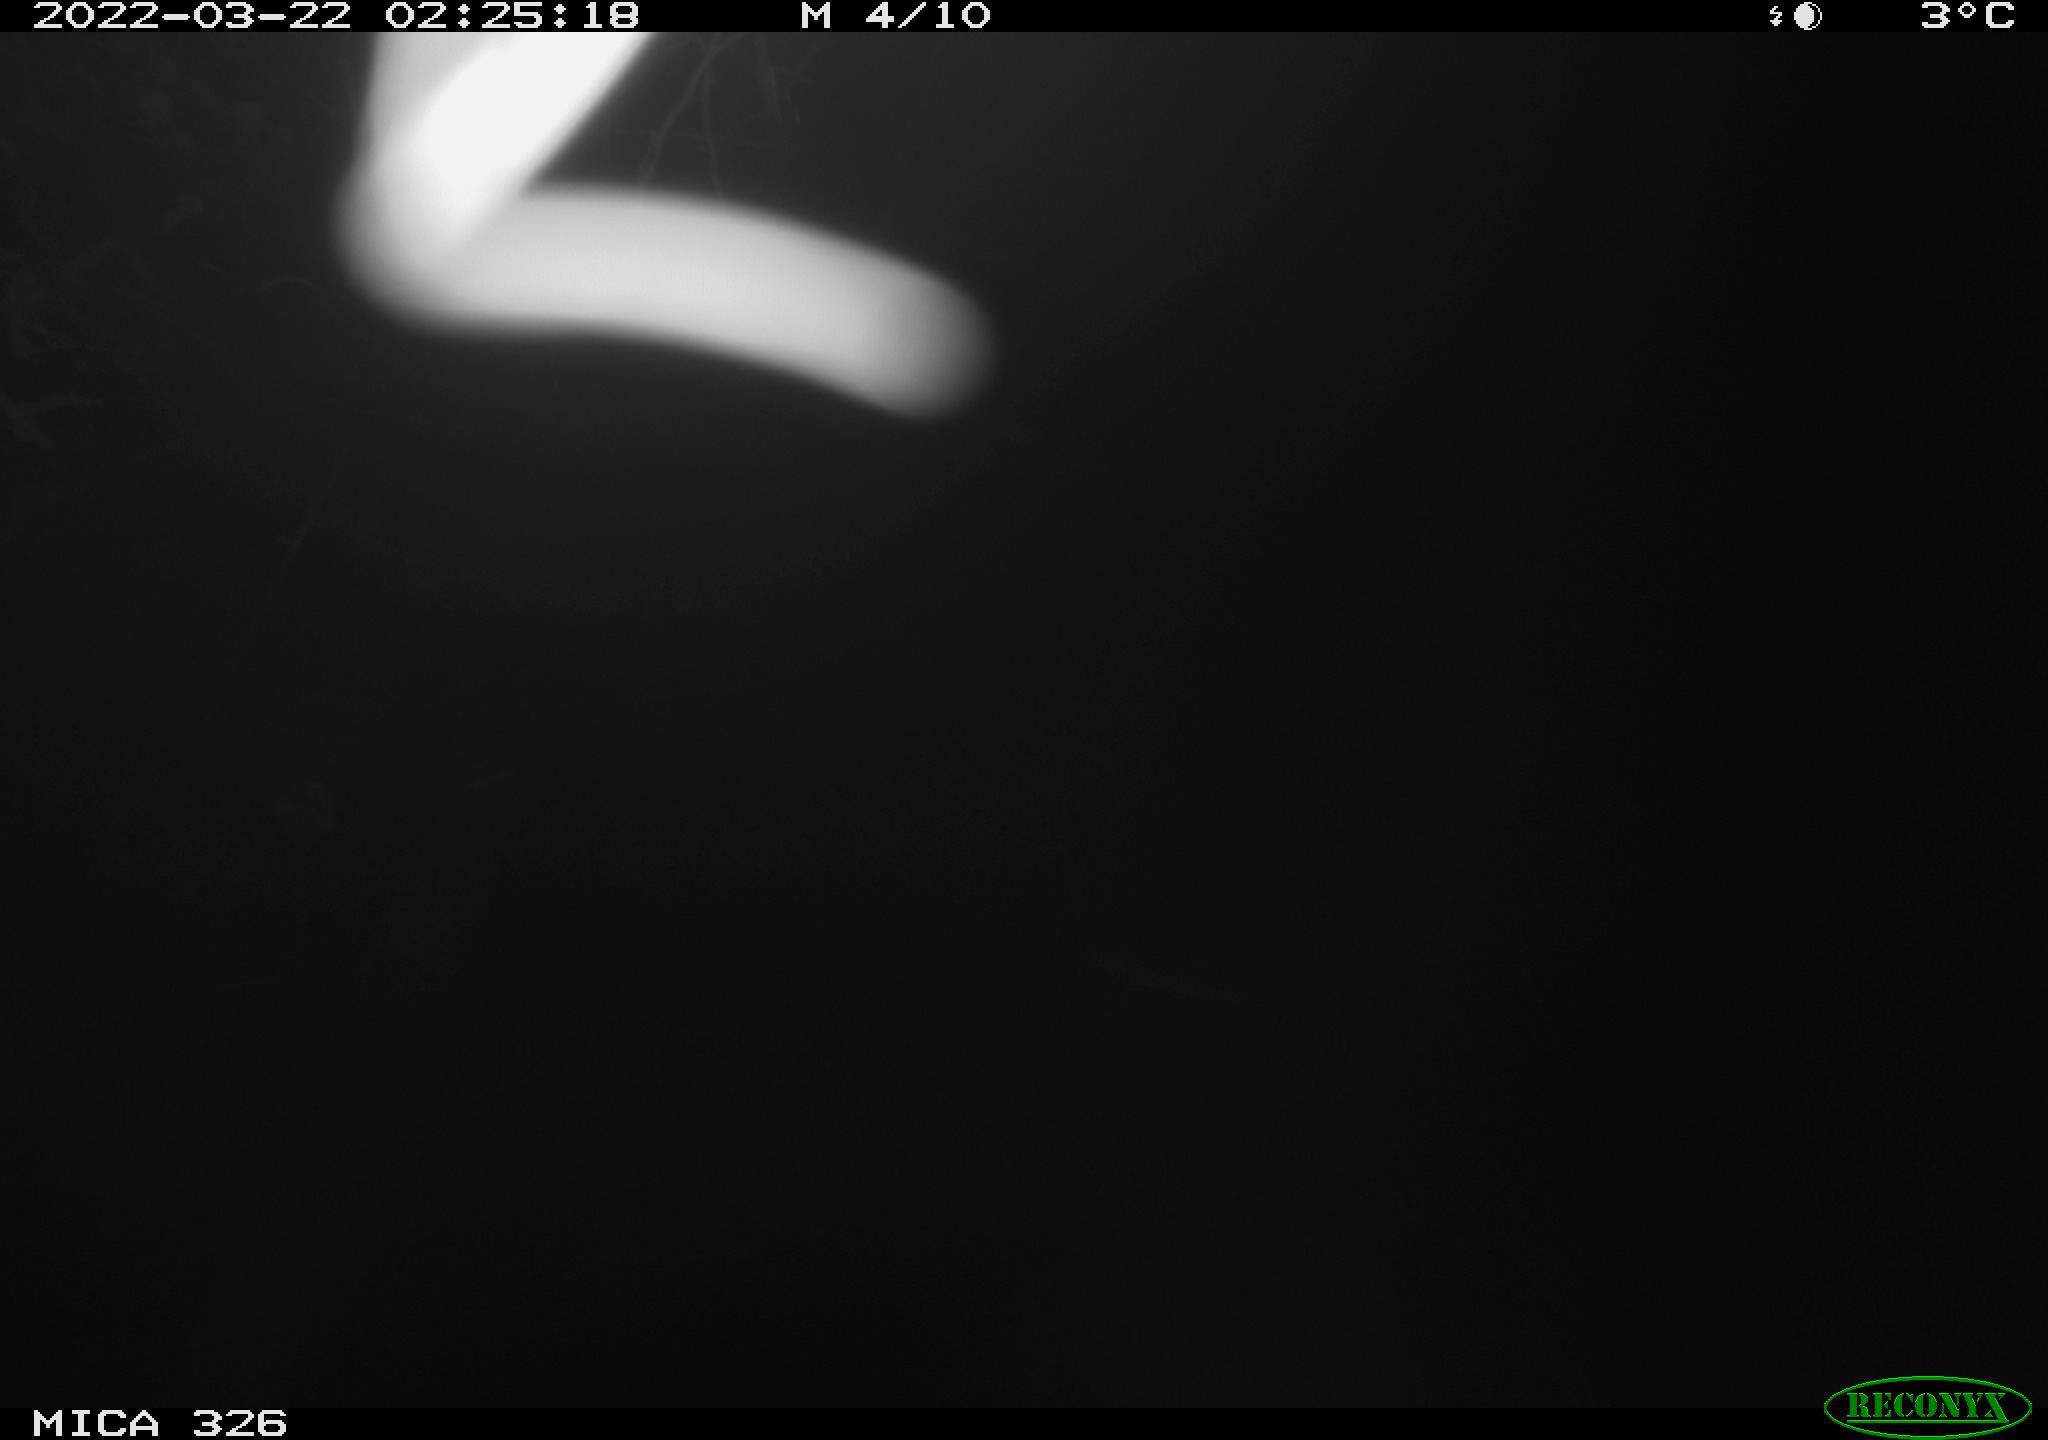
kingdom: Animalia
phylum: Chordata
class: Mammalia
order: Rodentia
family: Cricetidae
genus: Ondatra
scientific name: Ondatra zibethicus
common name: Muskrat
